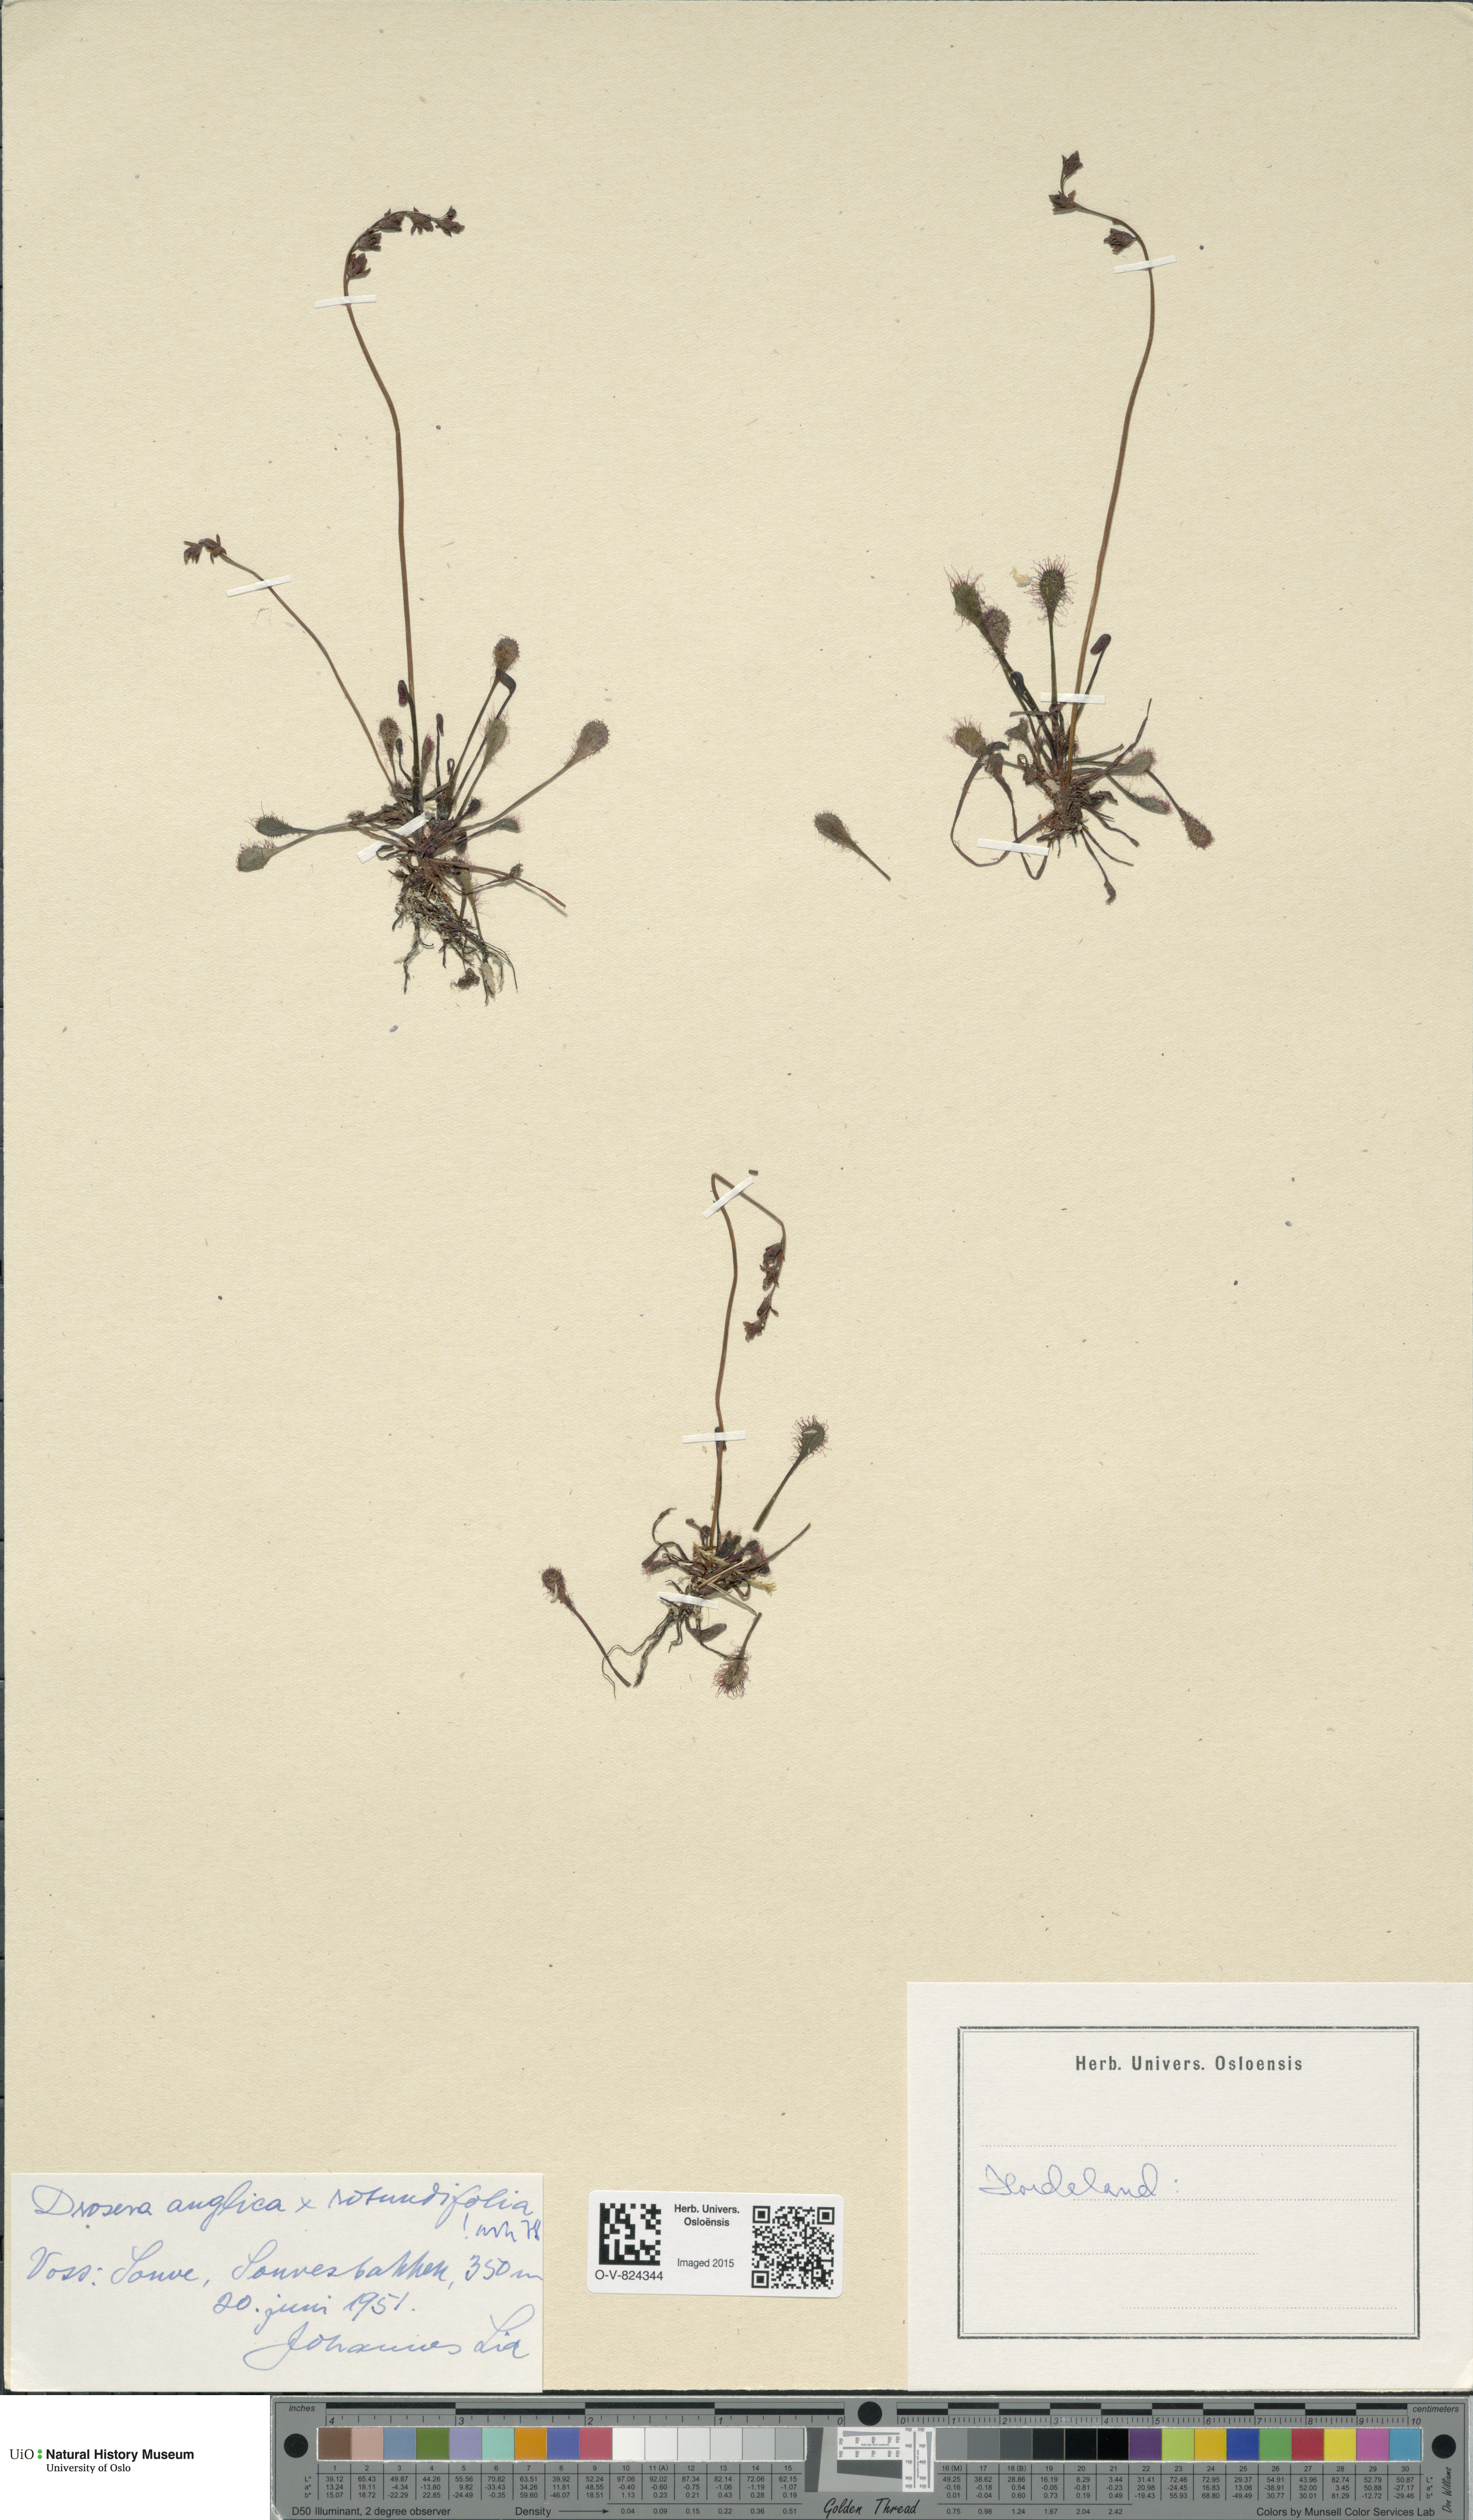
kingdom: Plantae
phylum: Tracheophyta
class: Magnoliopsida
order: Caryophyllales
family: Droseraceae
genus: Drosera
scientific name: Drosera
